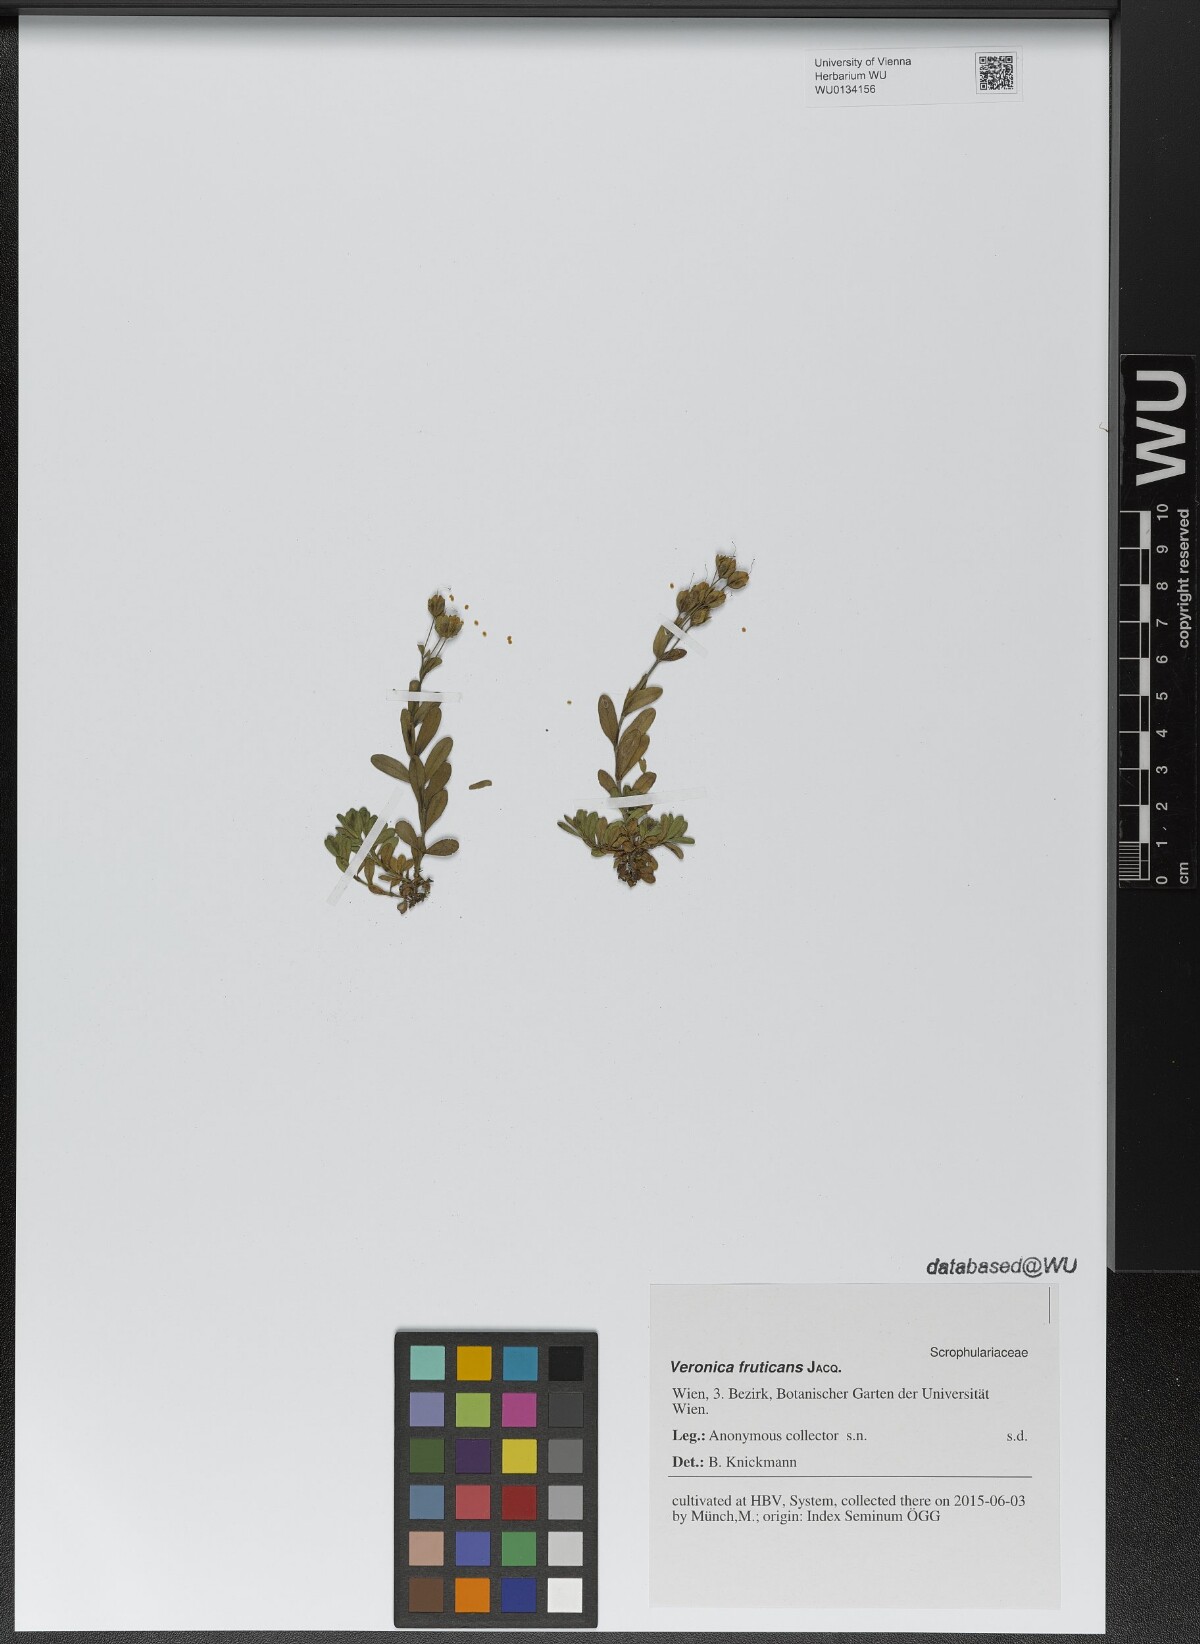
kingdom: Plantae
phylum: Tracheophyta
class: Magnoliopsida
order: Lamiales
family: Plantaginaceae
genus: Veronica
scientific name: Veronica fruticans
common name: Rock speedwell
